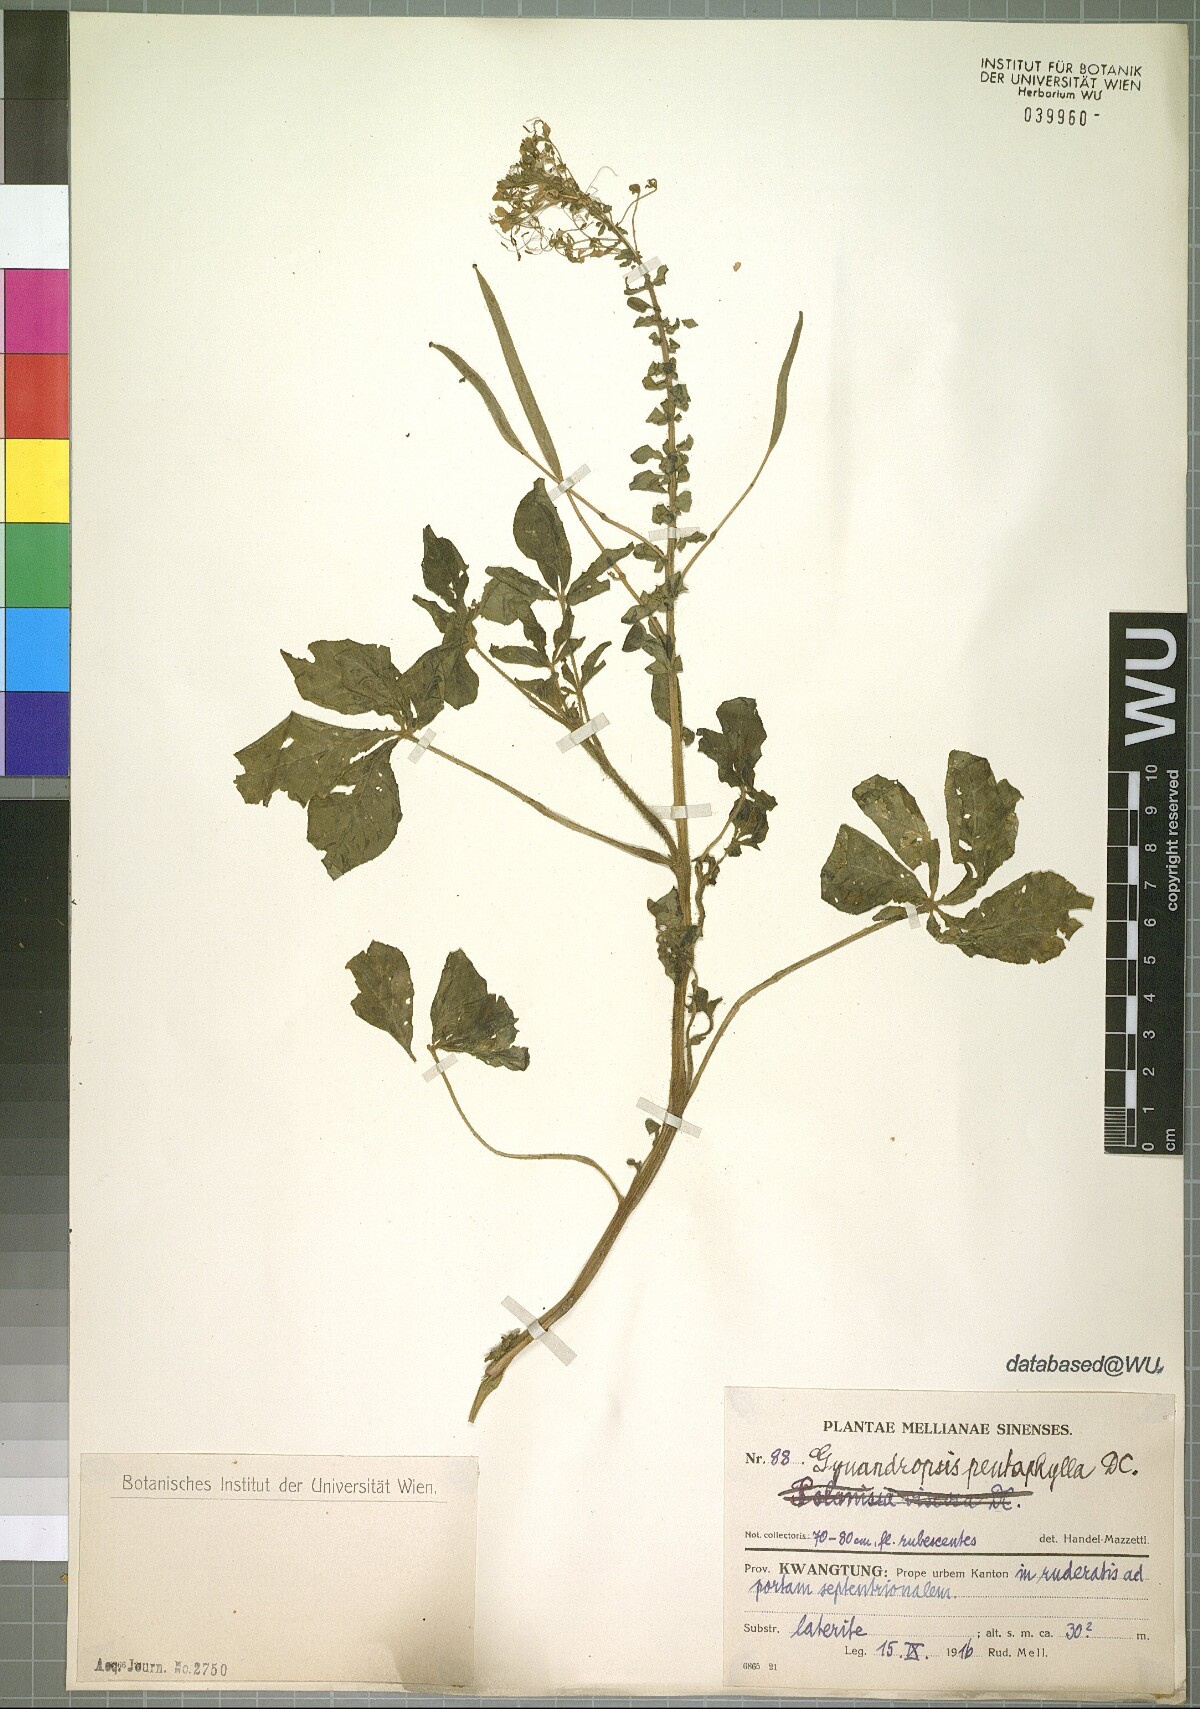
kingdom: Plantae
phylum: Tracheophyta
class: Magnoliopsida
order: Brassicales
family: Cleomaceae
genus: Gynandropsis
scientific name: Gynandropsis gynandra
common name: Spiderwisp
